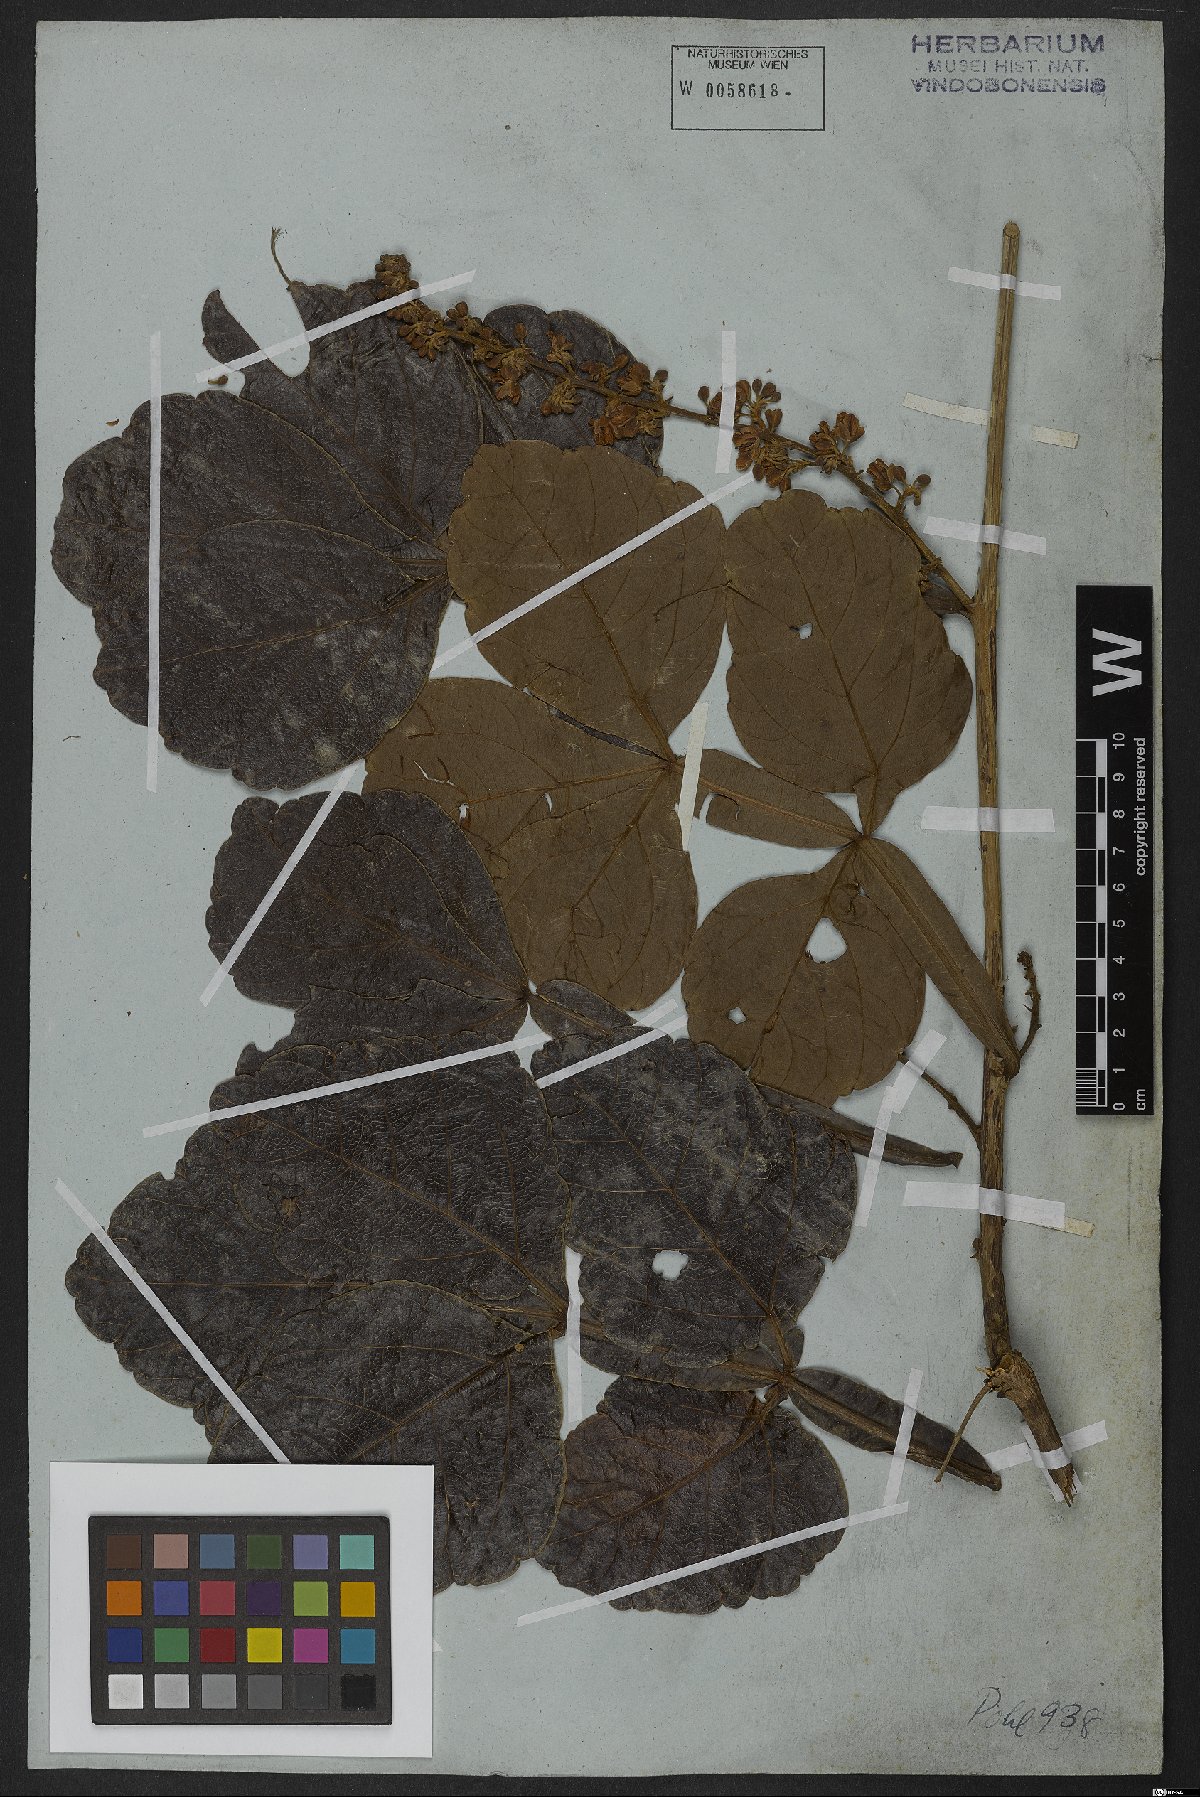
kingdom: Plantae
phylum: Tracheophyta
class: Magnoliopsida
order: Sapindales
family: Sapindaceae
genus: Serjania
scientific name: Serjania erecta
